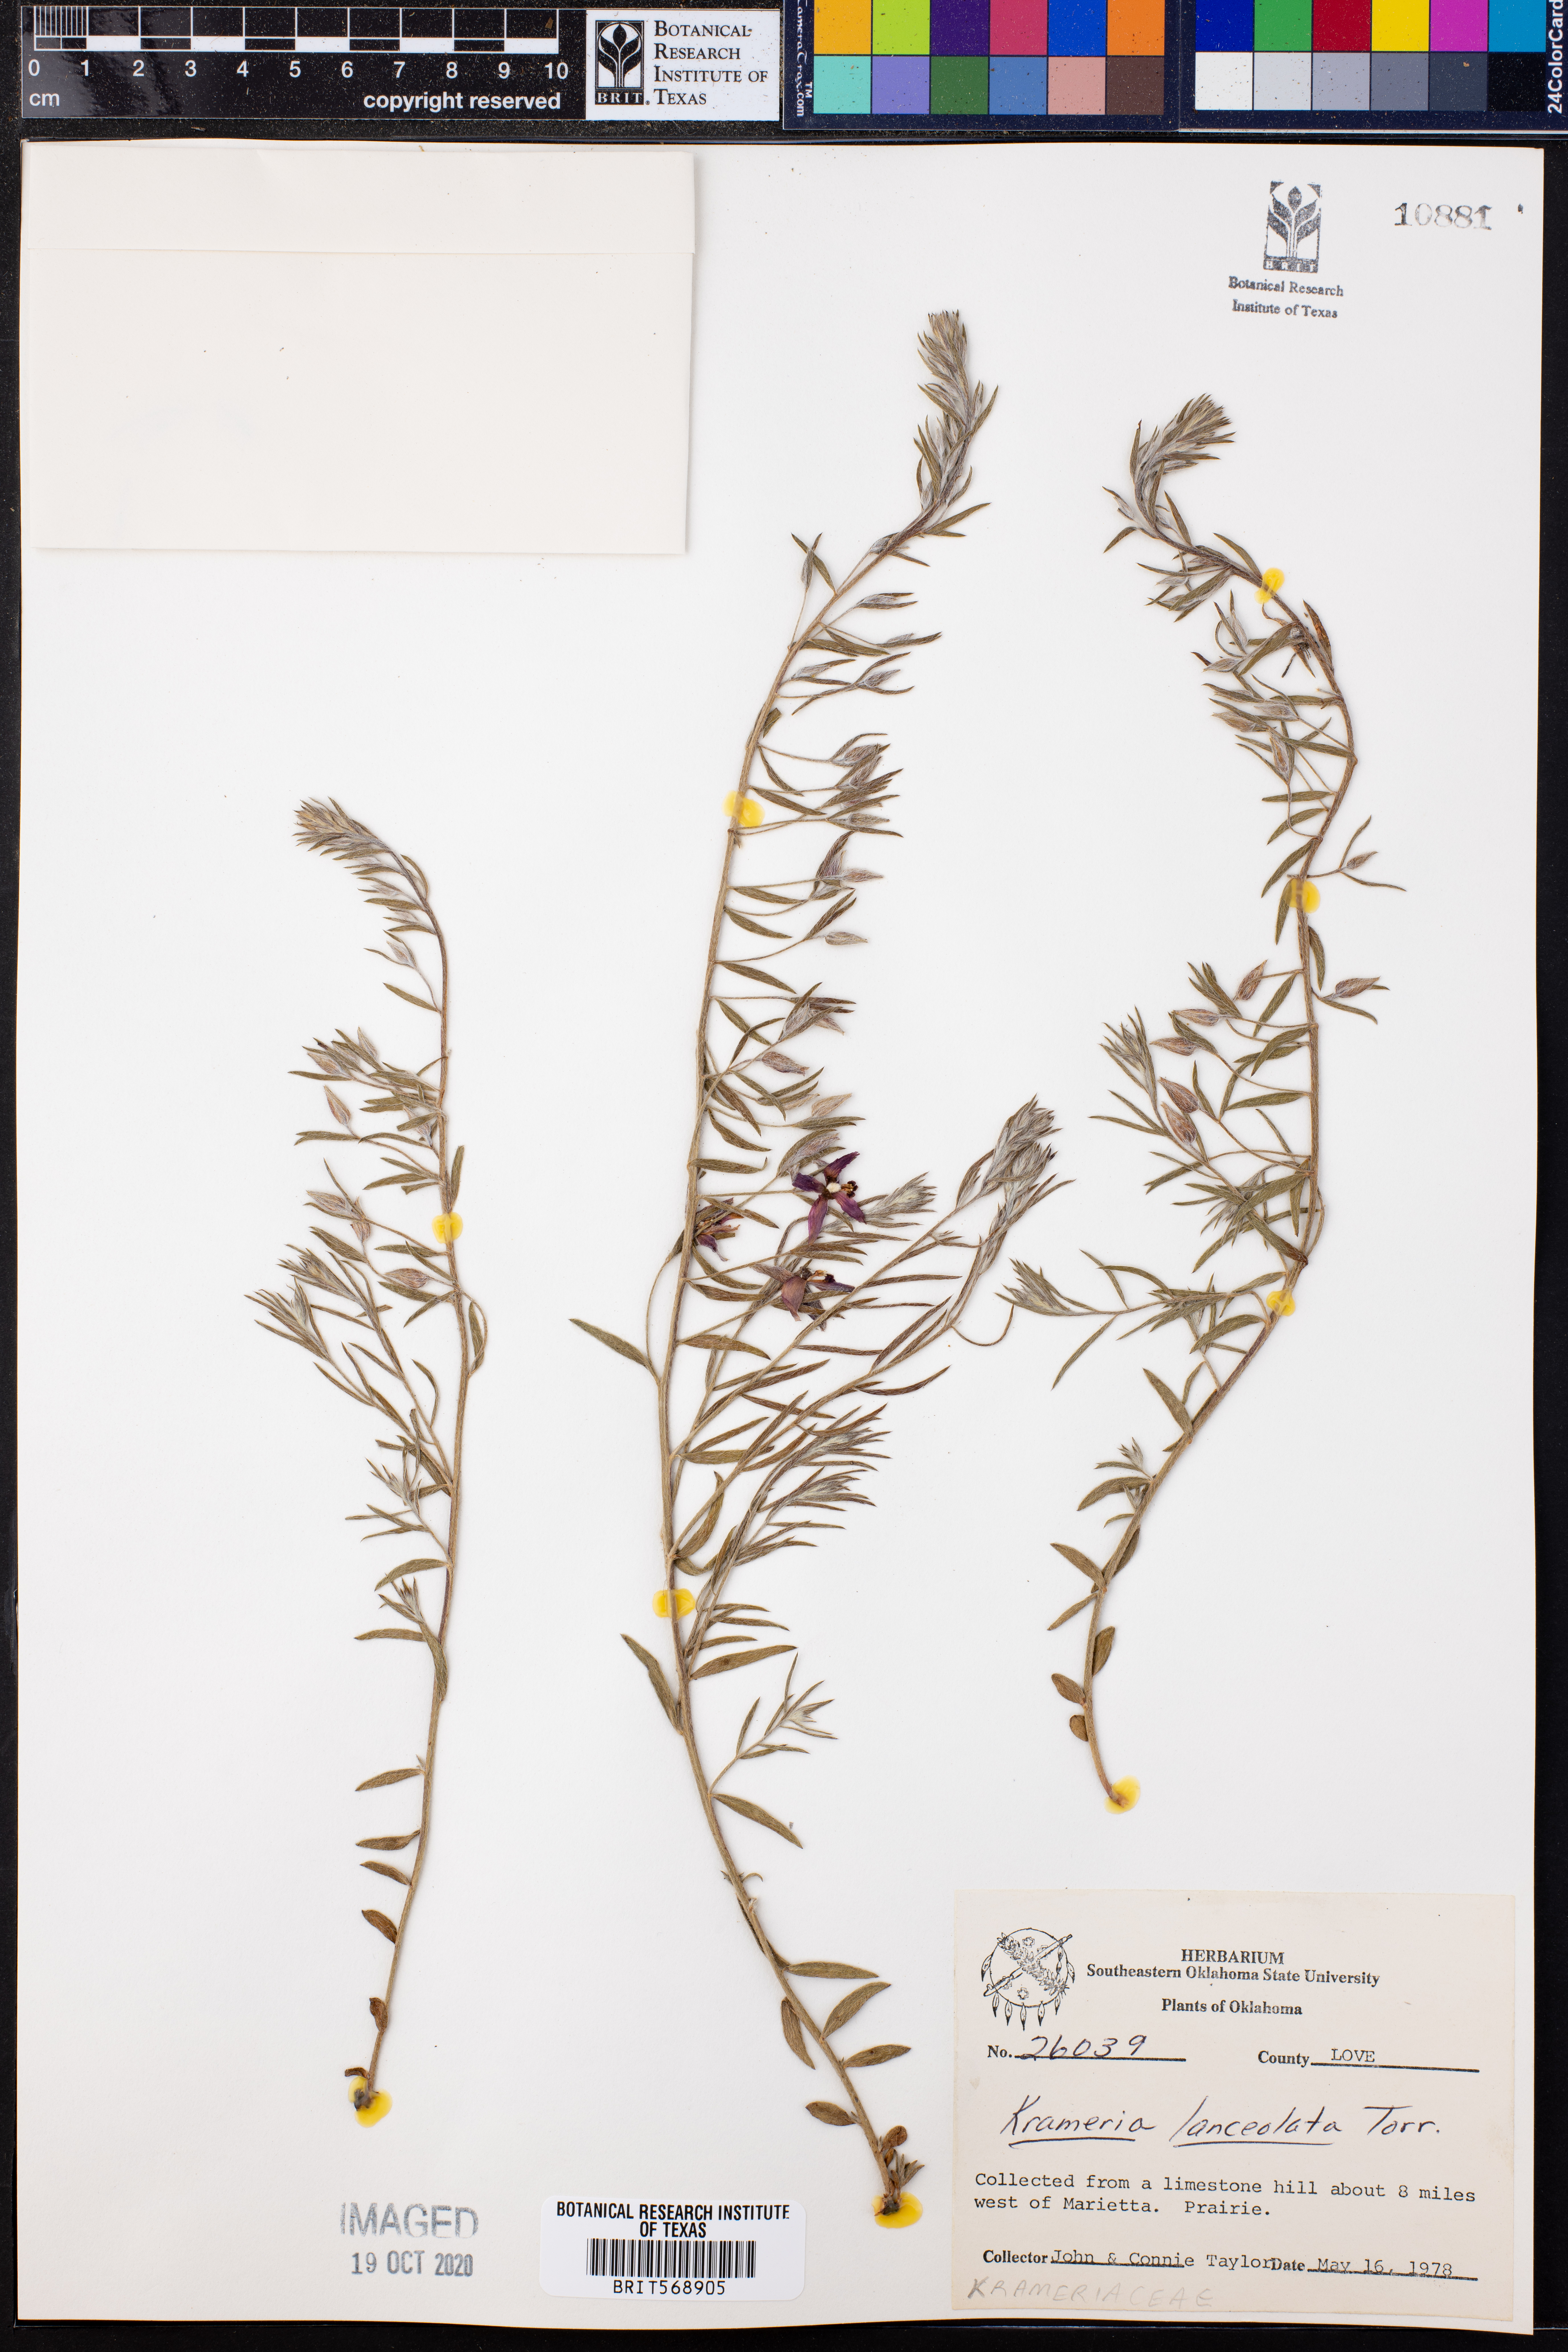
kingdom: Plantae
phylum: Tracheophyta
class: Magnoliopsida
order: Zygophyllales
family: Krameriaceae
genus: Krameria
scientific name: Krameria lanceolata
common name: Ratany
